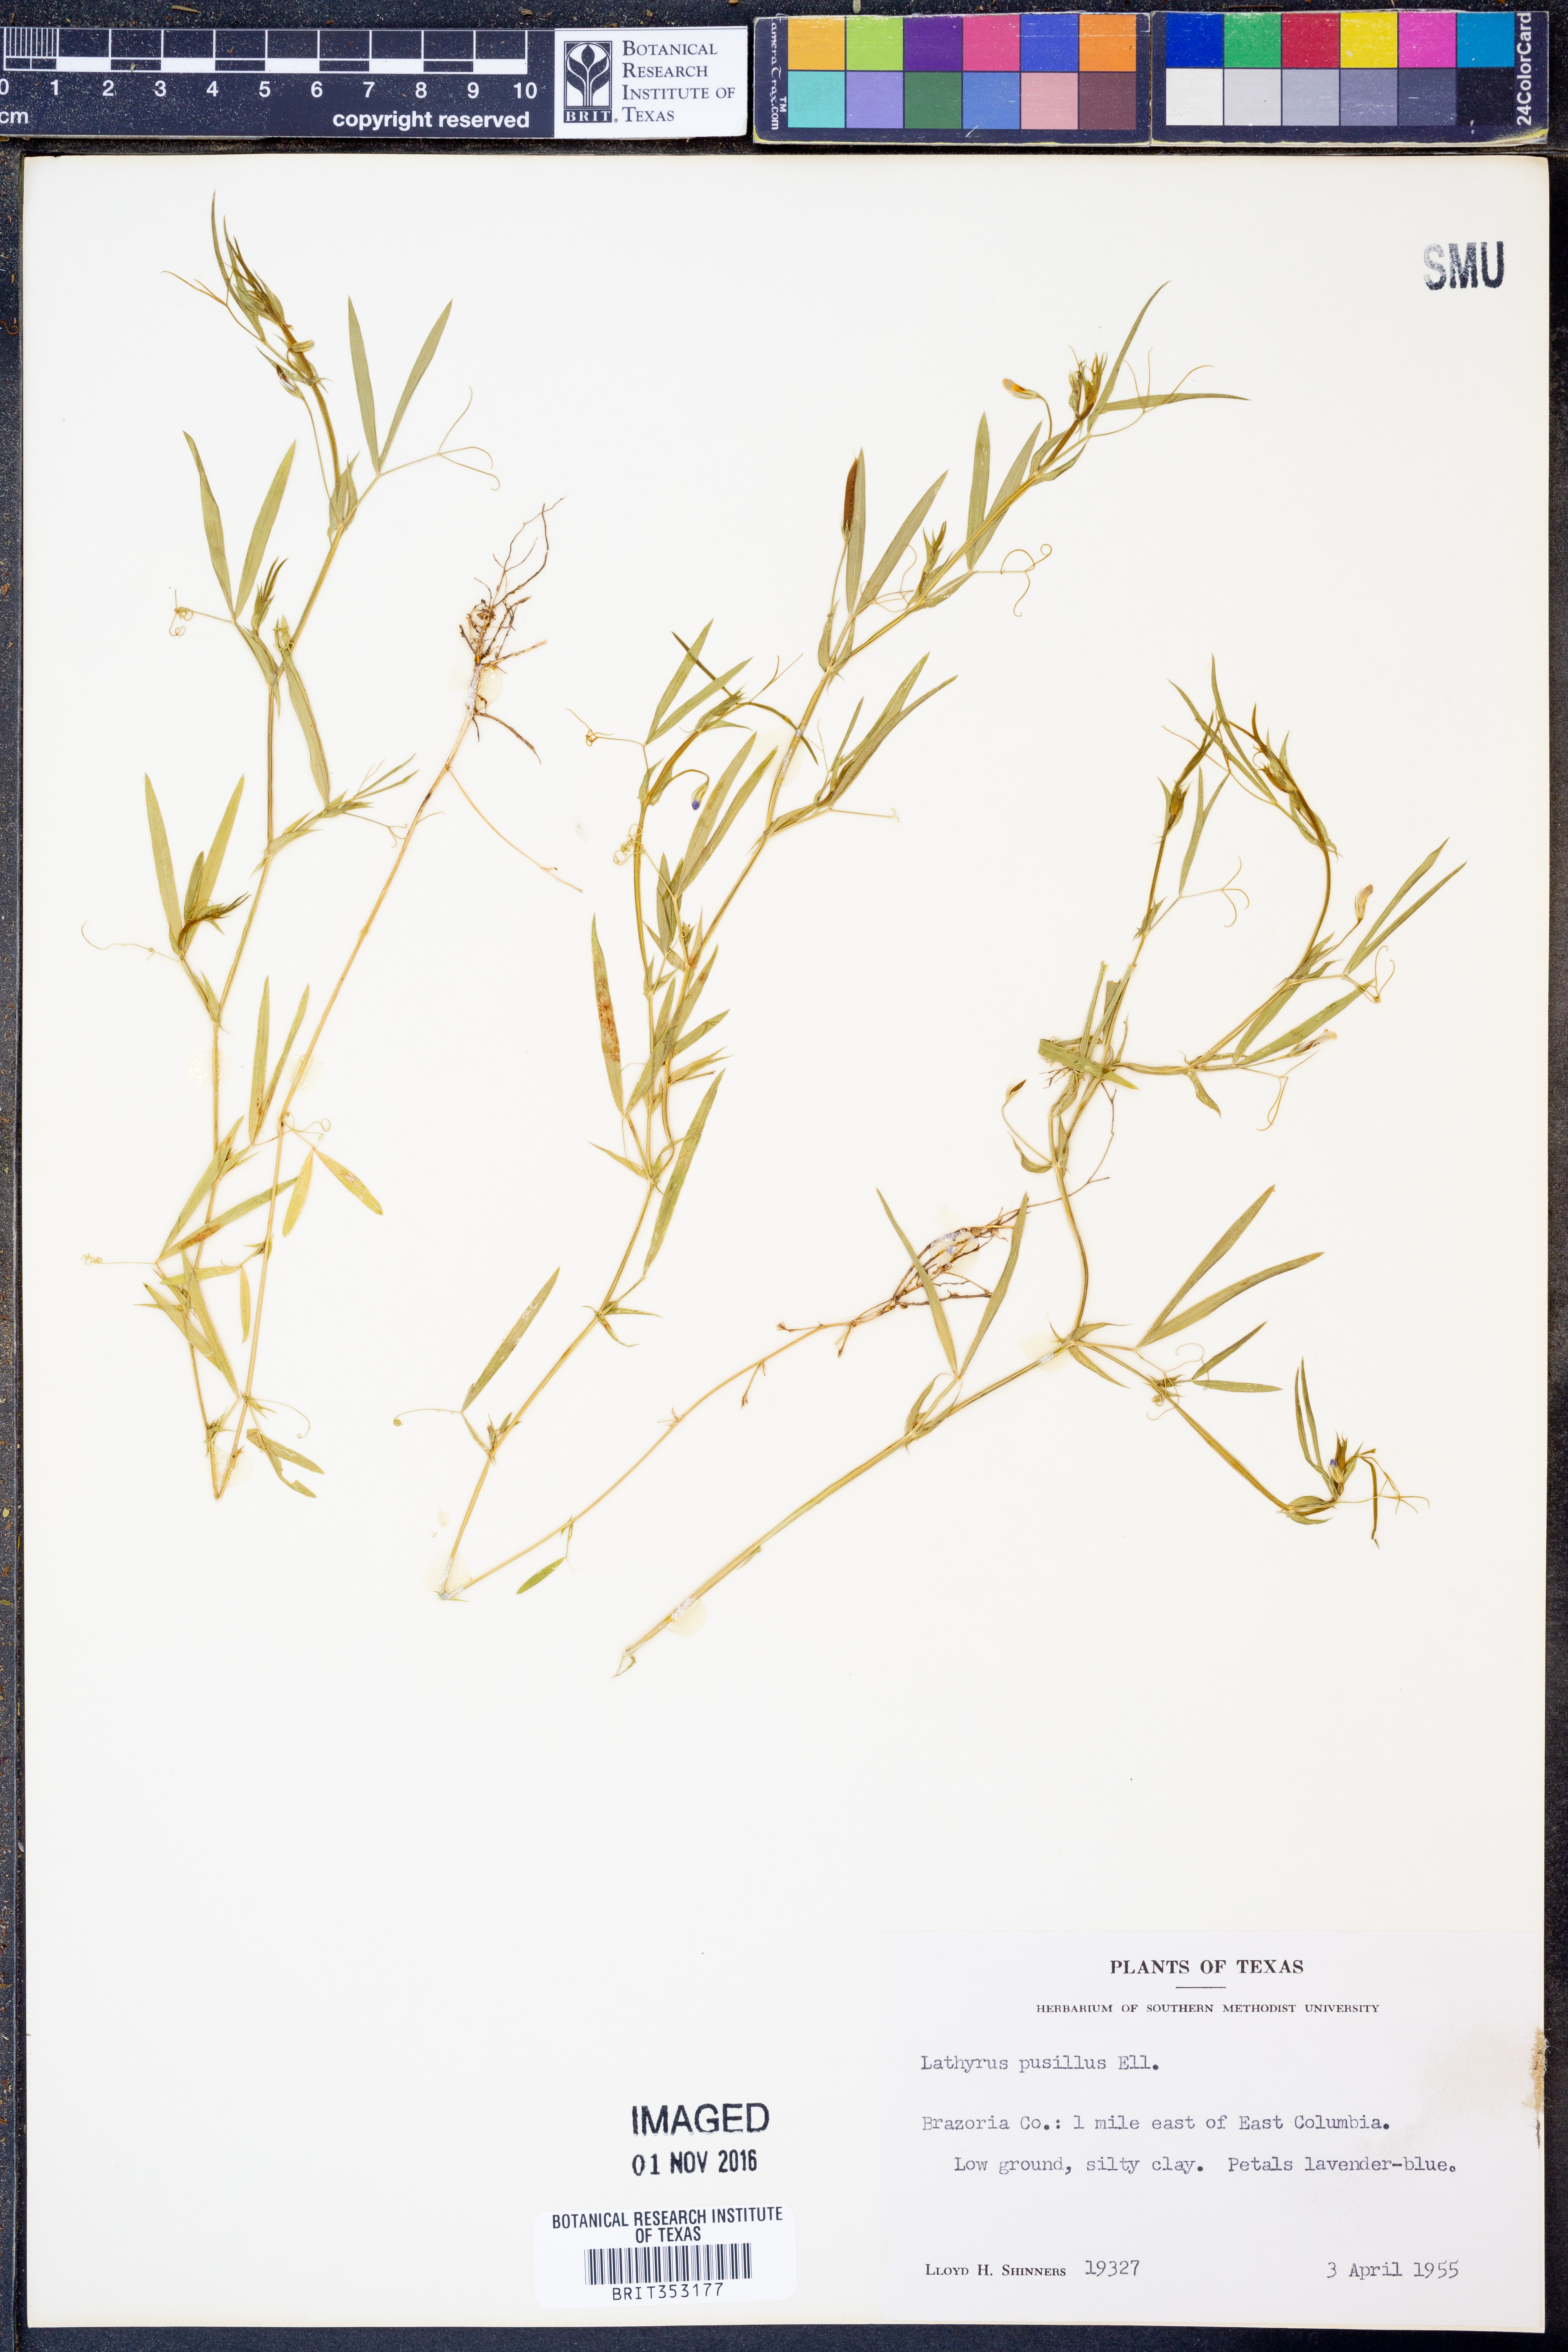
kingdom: Plantae
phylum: Tracheophyta
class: Magnoliopsida
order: Fabales
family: Fabaceae
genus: Lathyrus
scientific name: Lathyrus pusillus
